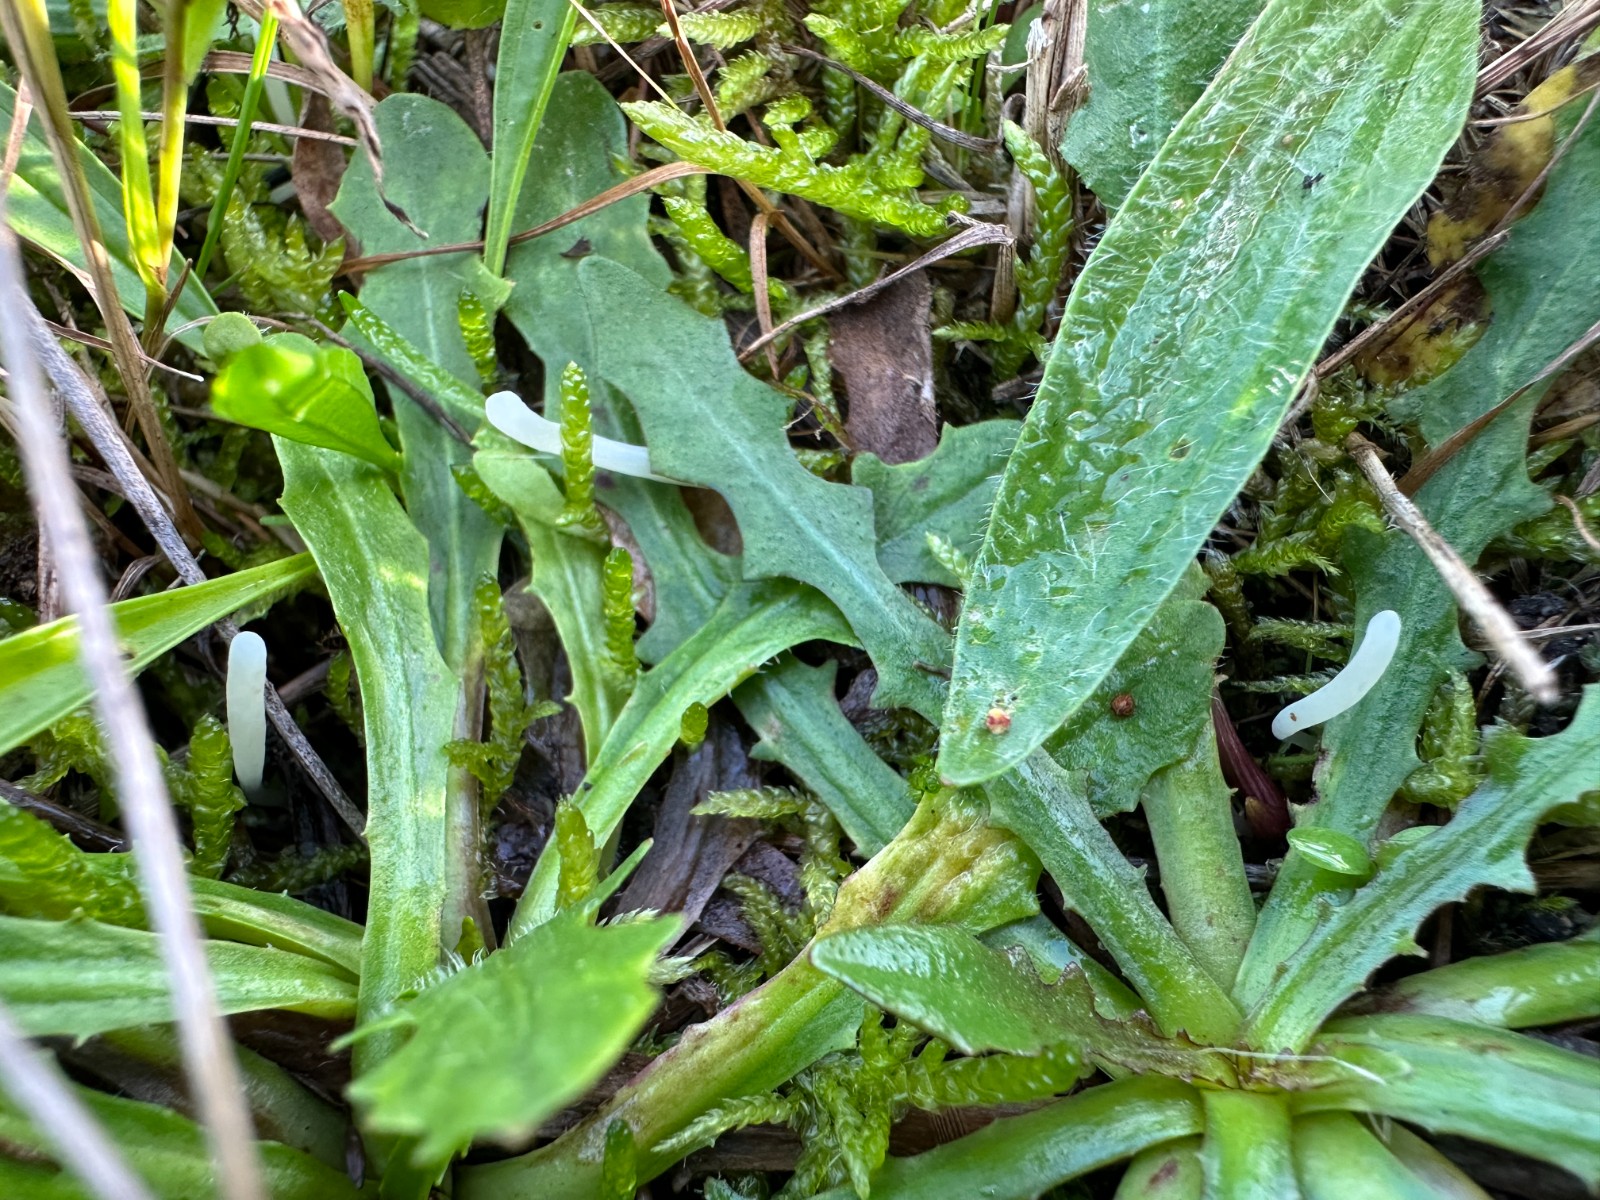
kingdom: Fungi
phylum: Basidiomycota
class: Agaricomycetes
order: Agaricales
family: Clavariaceae
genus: Clavaria
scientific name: Clavaria falcata
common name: hvid køllesvamp
